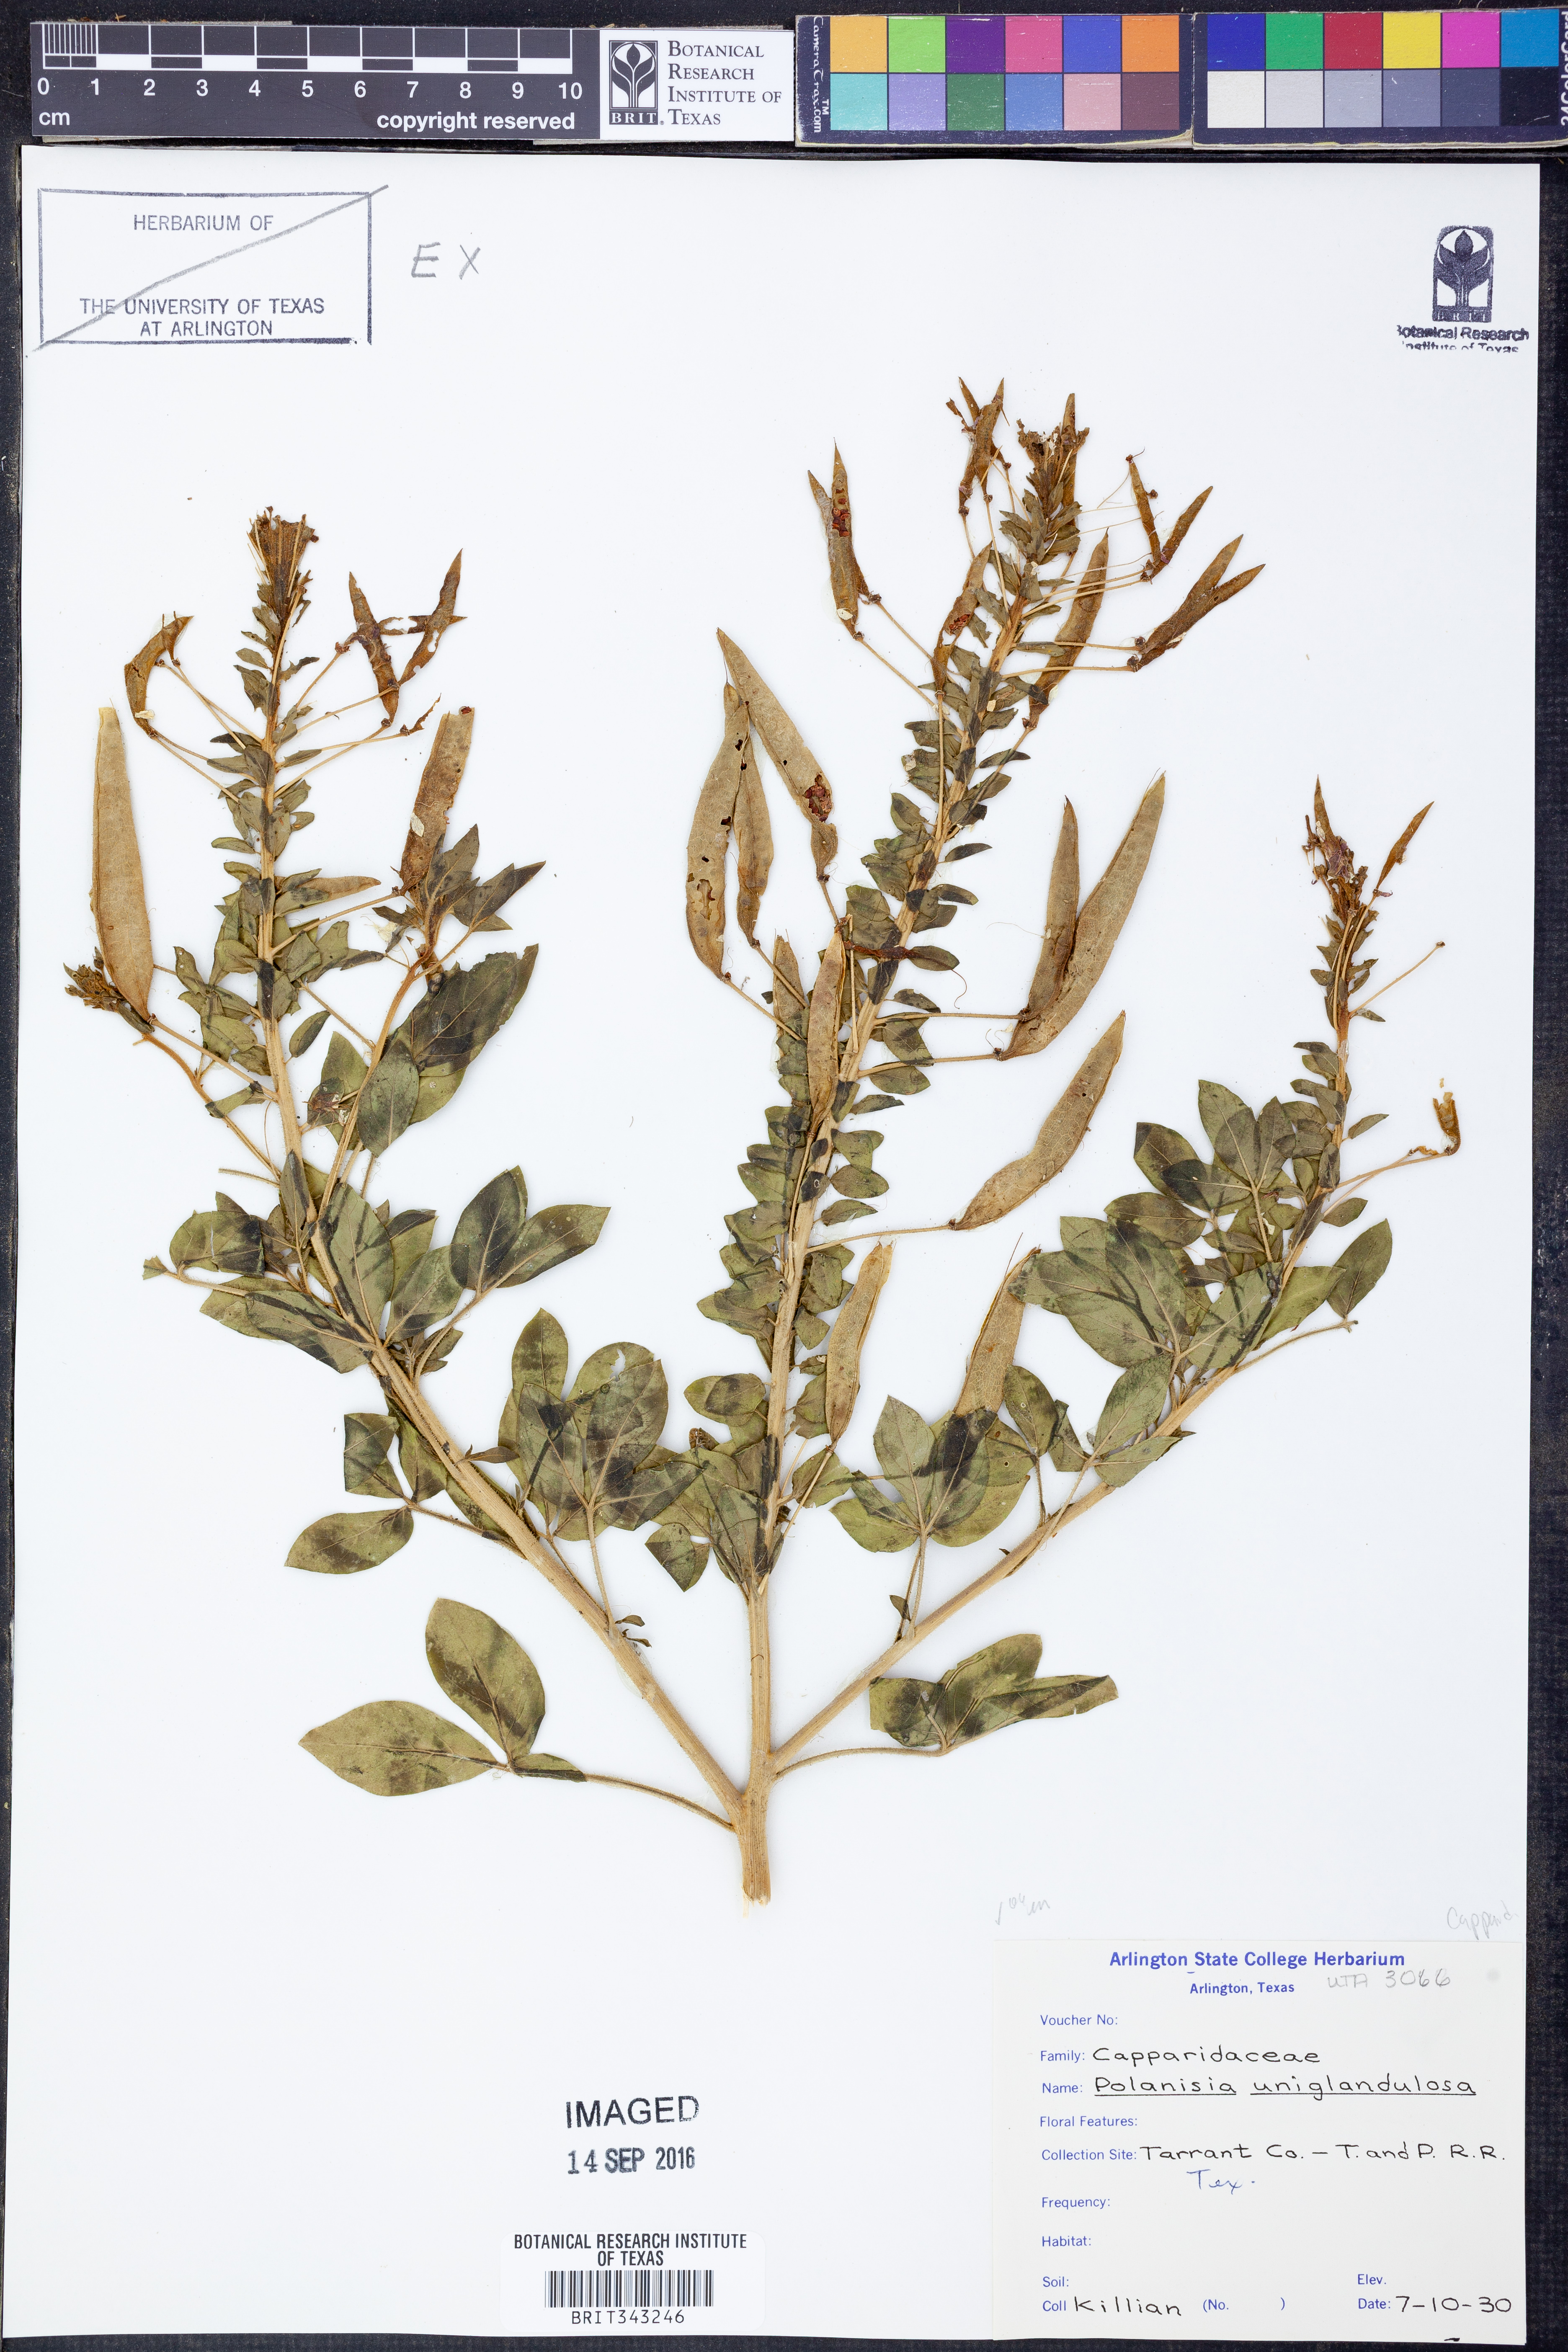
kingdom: Plantae
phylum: Tracheophyta
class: Magnoliopsida
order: Brassicales
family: Cleomaceae
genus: Polanisia
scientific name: Polanisia uniglandulosa
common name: Mexican clammyweed
